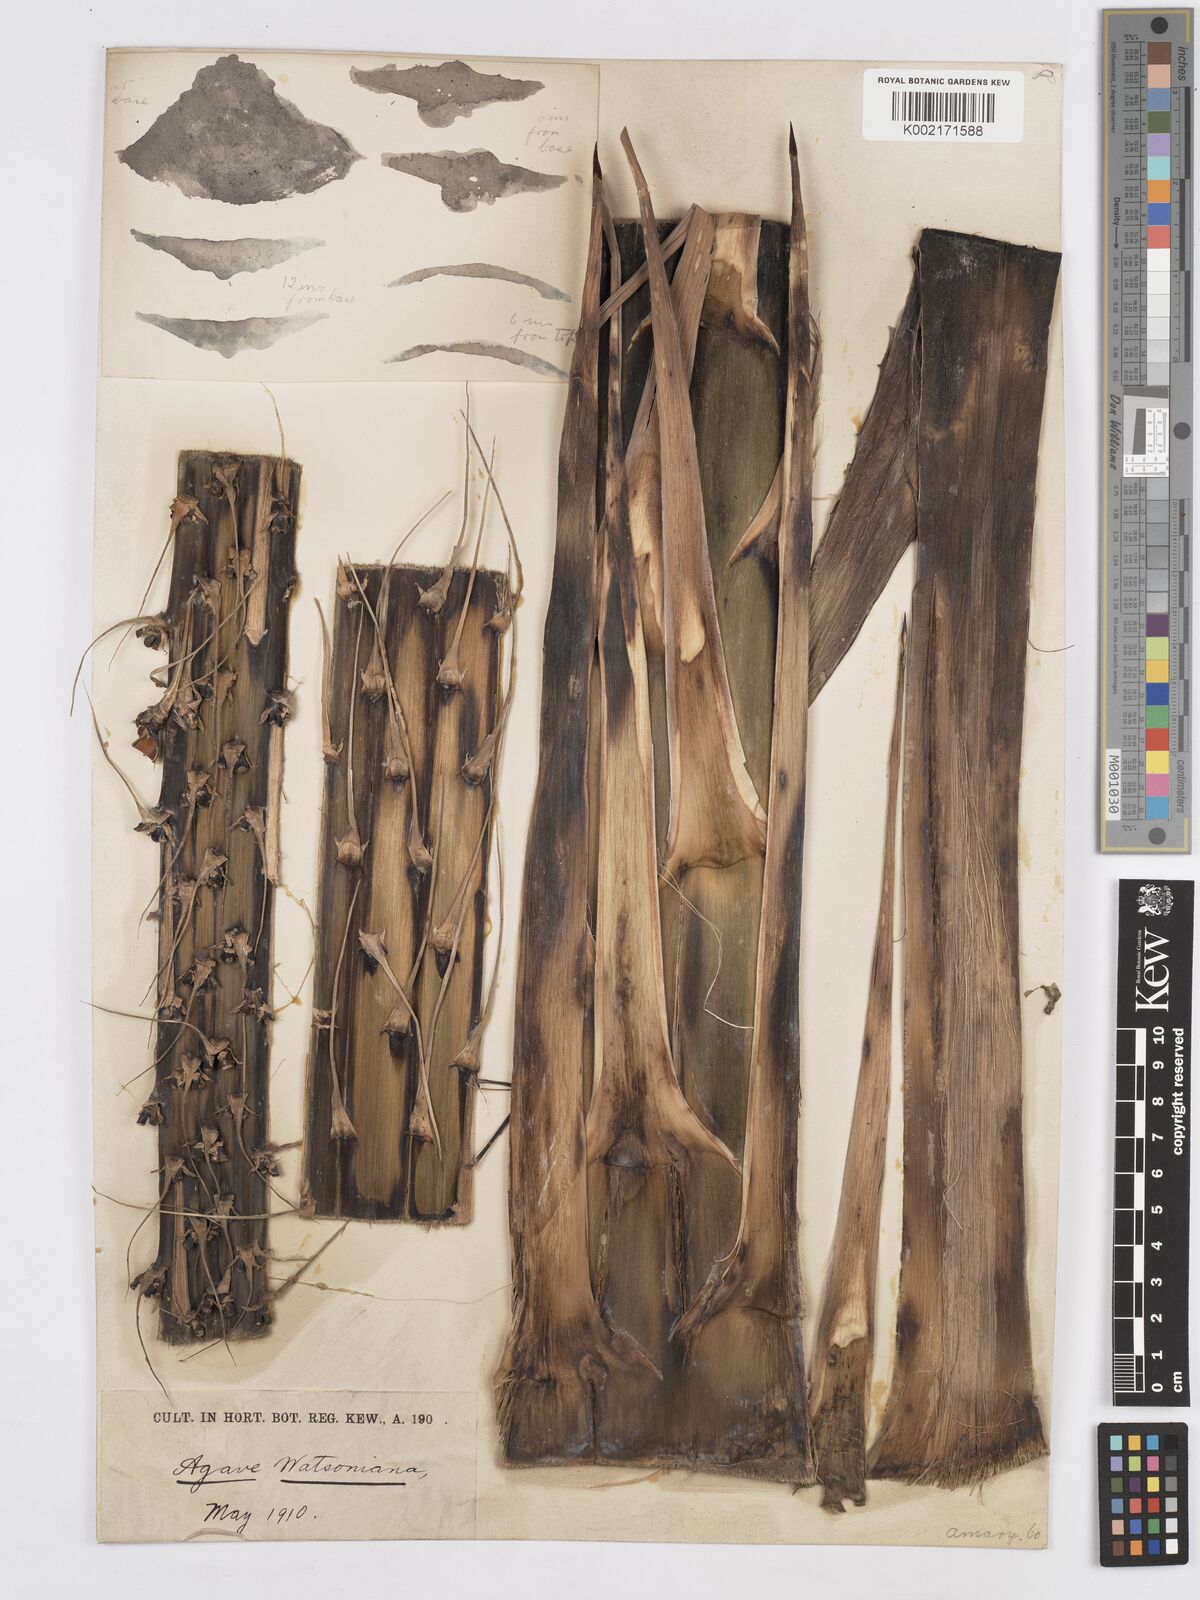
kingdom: Plantae
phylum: Tracheophyta
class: Liliopsida
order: Asparagales
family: Asparagaceae
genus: Agave
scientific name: Agave watsonii
